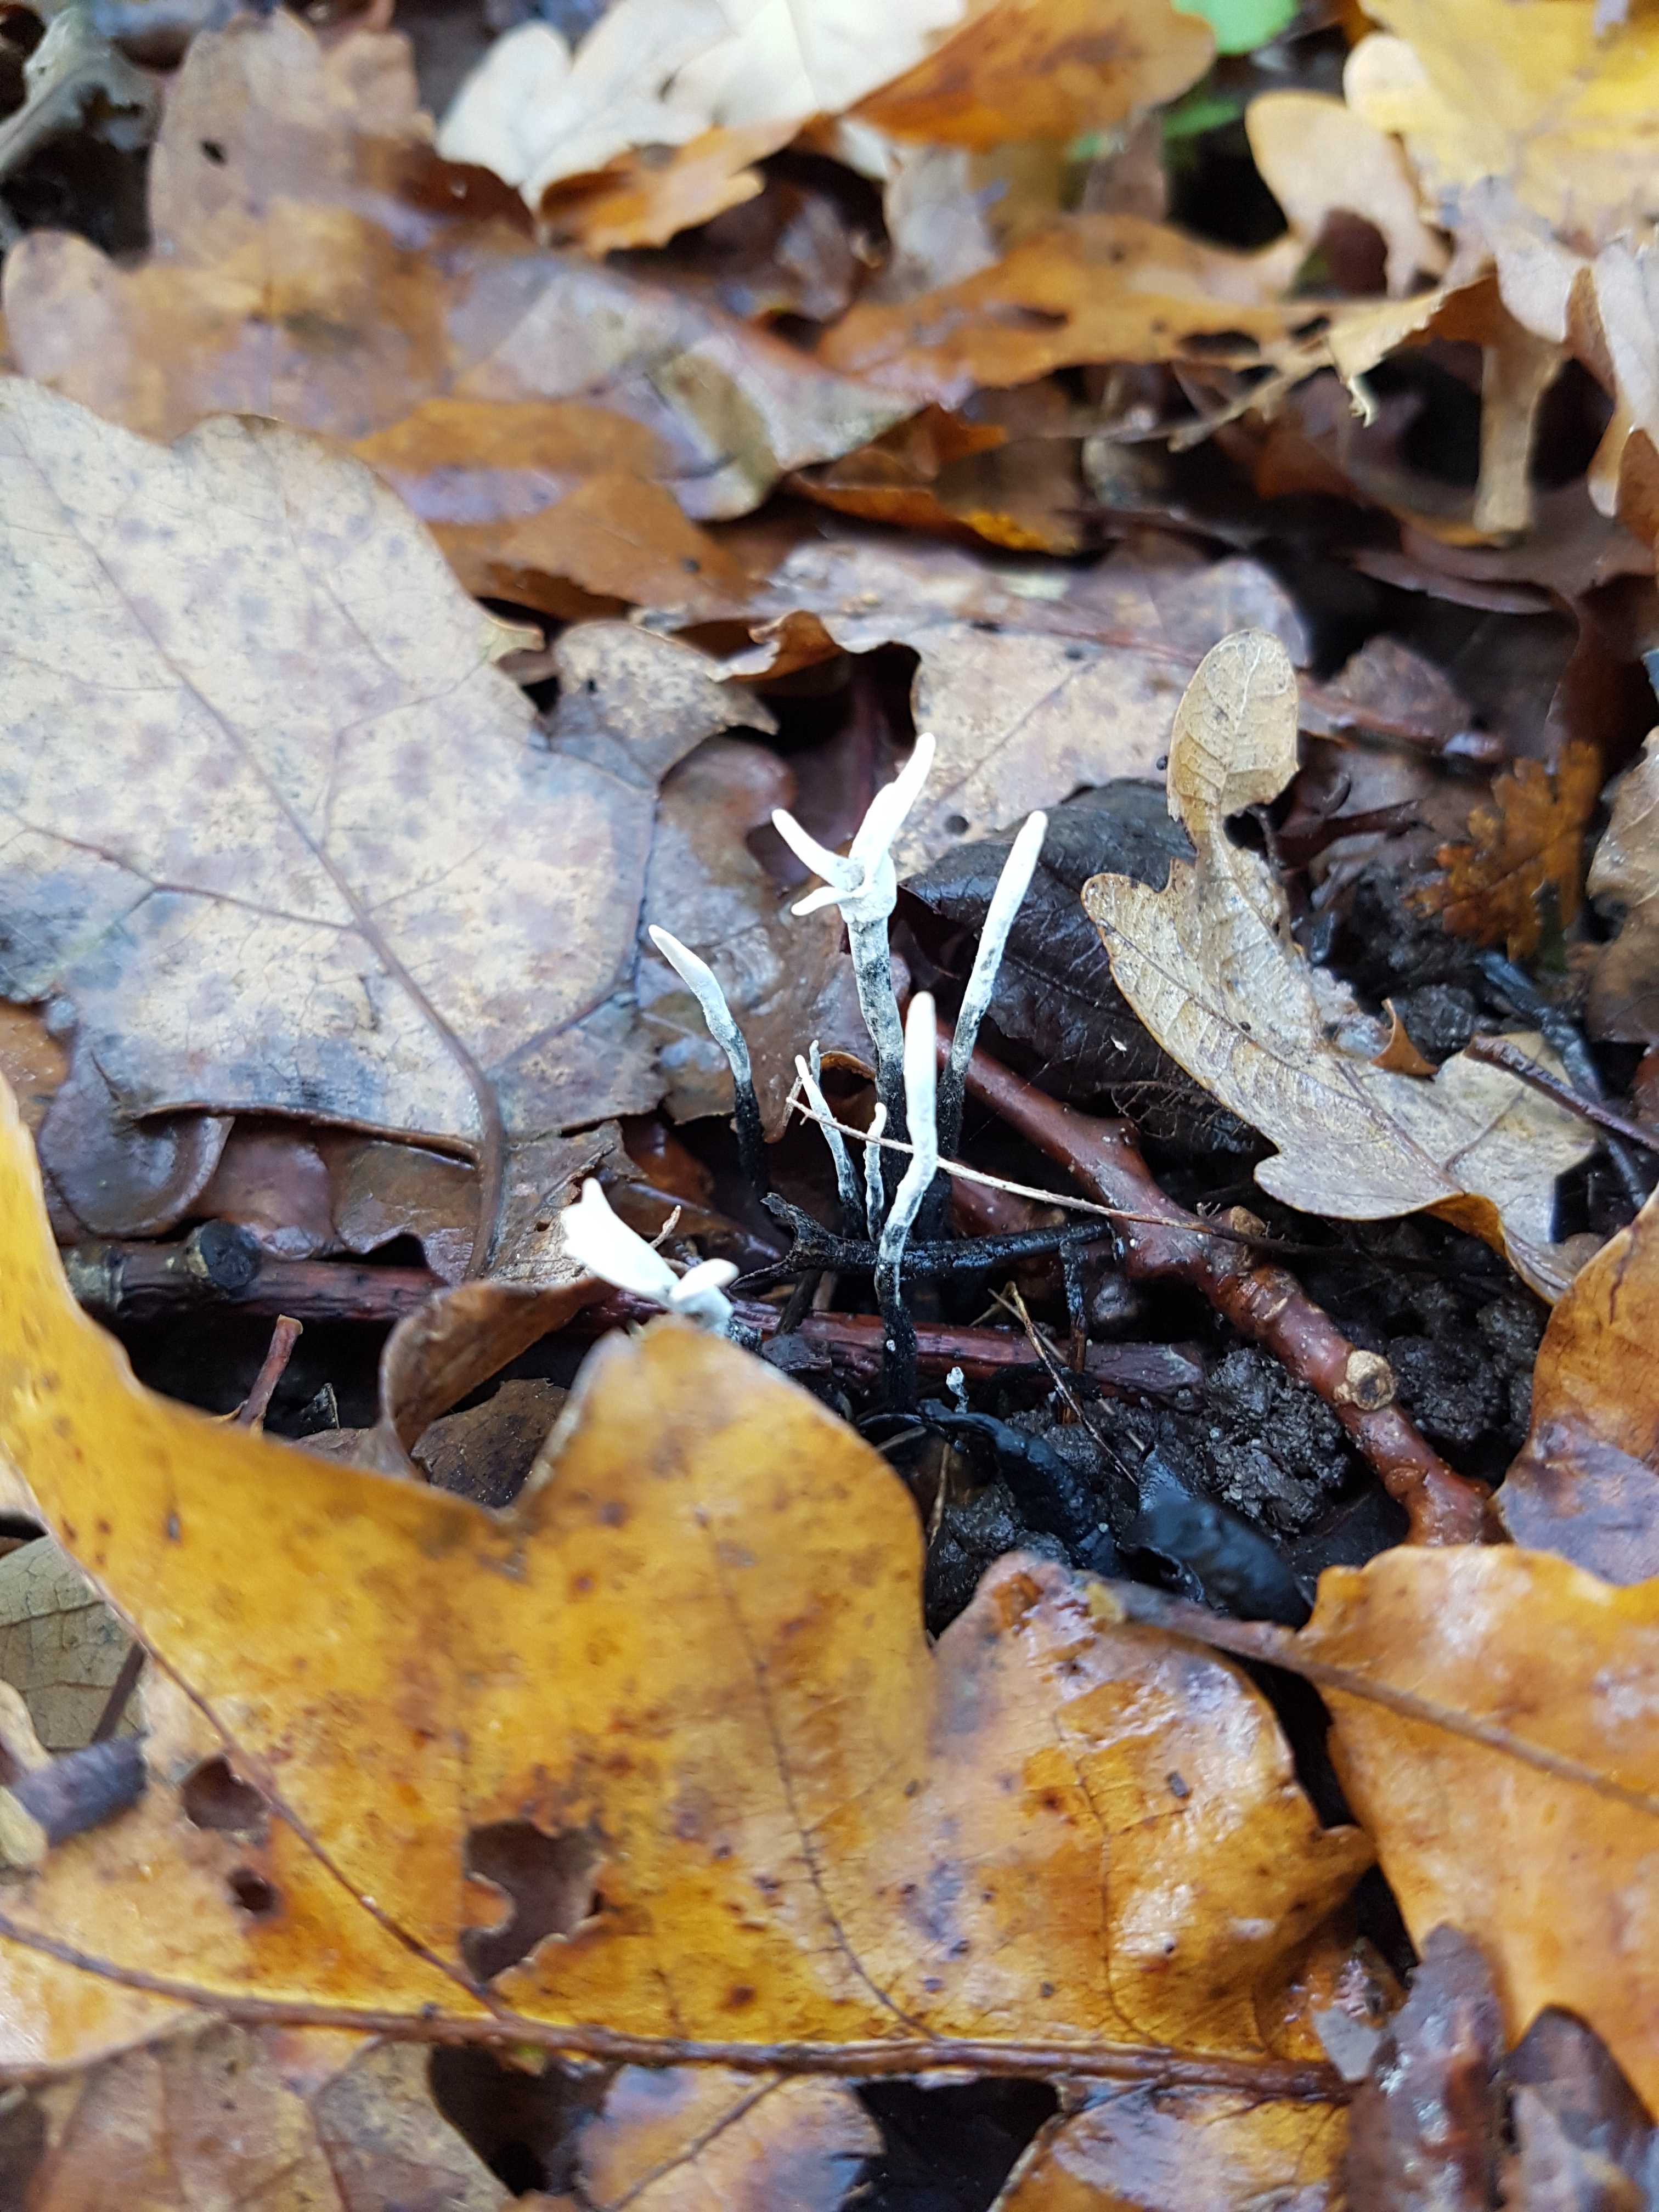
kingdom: Fungi
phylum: Ascomycota
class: Sordariomycetes
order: Xylariales
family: Xylariaceae
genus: Xylaria
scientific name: Xylaria hypoxylon
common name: grenet stødsvamp
